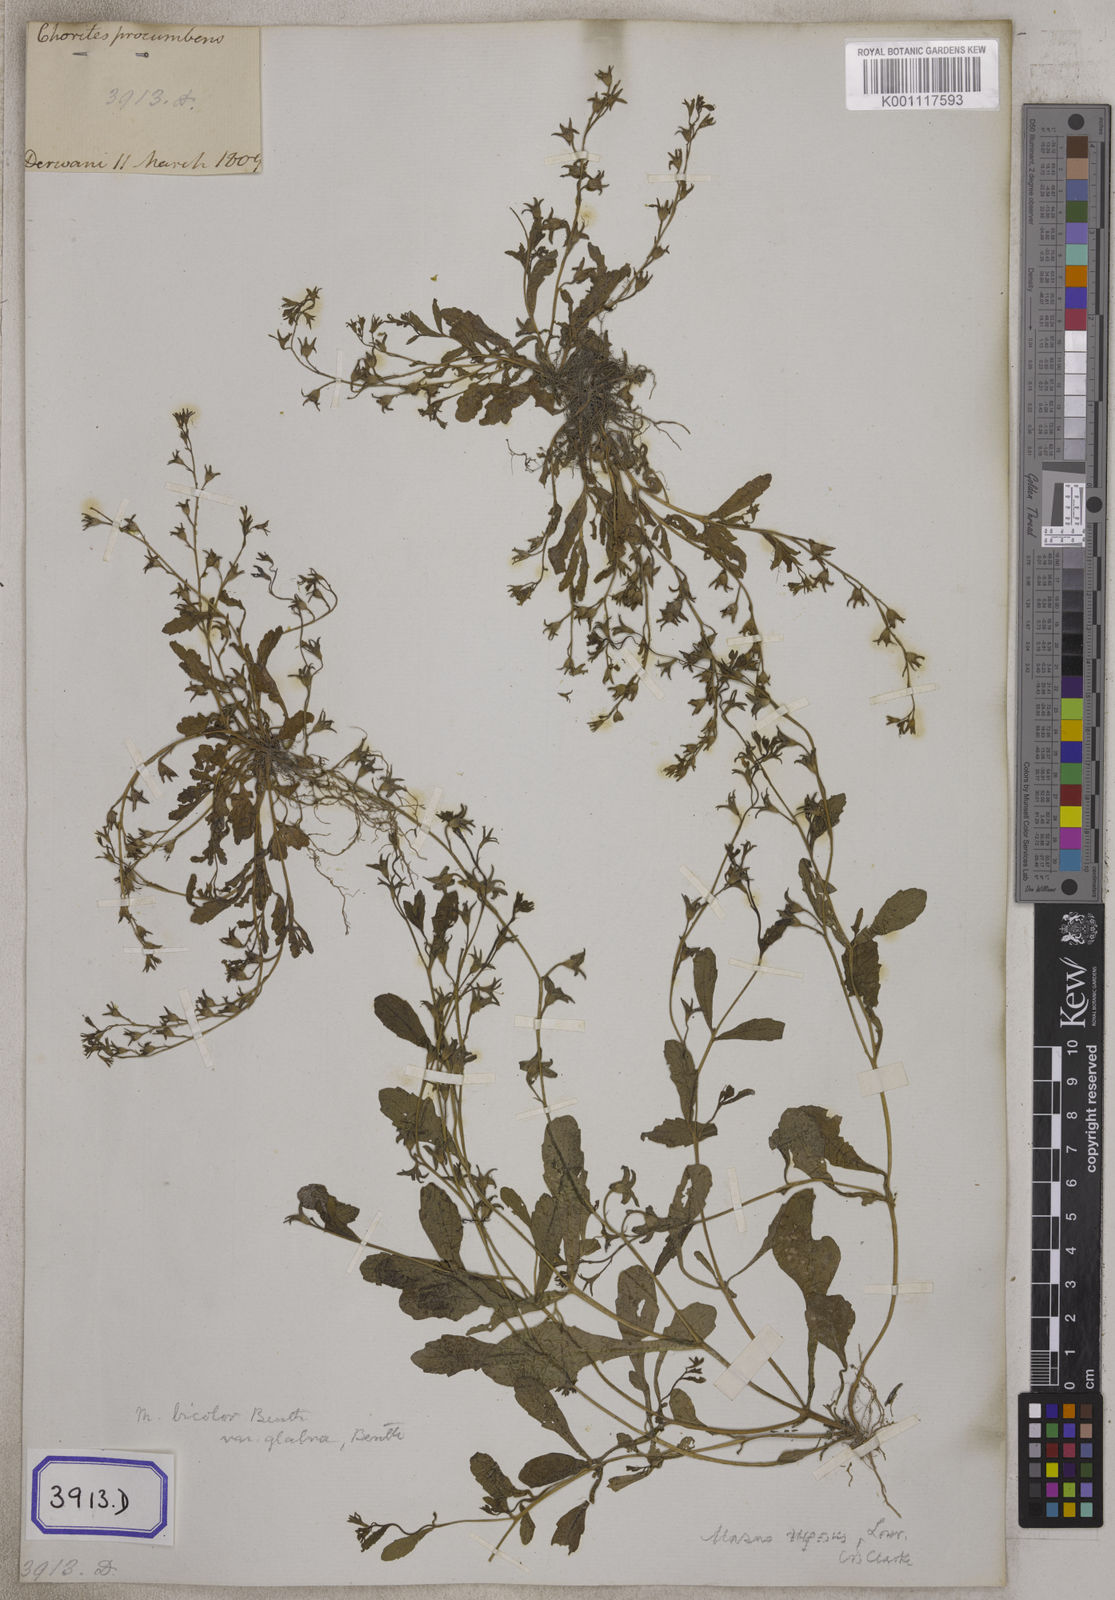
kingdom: Plantae
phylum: Tracheophyta
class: Magnoliopsida
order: Lamiales
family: Mazaceae
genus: Mazus
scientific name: Mazus pumilus
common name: Japanese mazus
